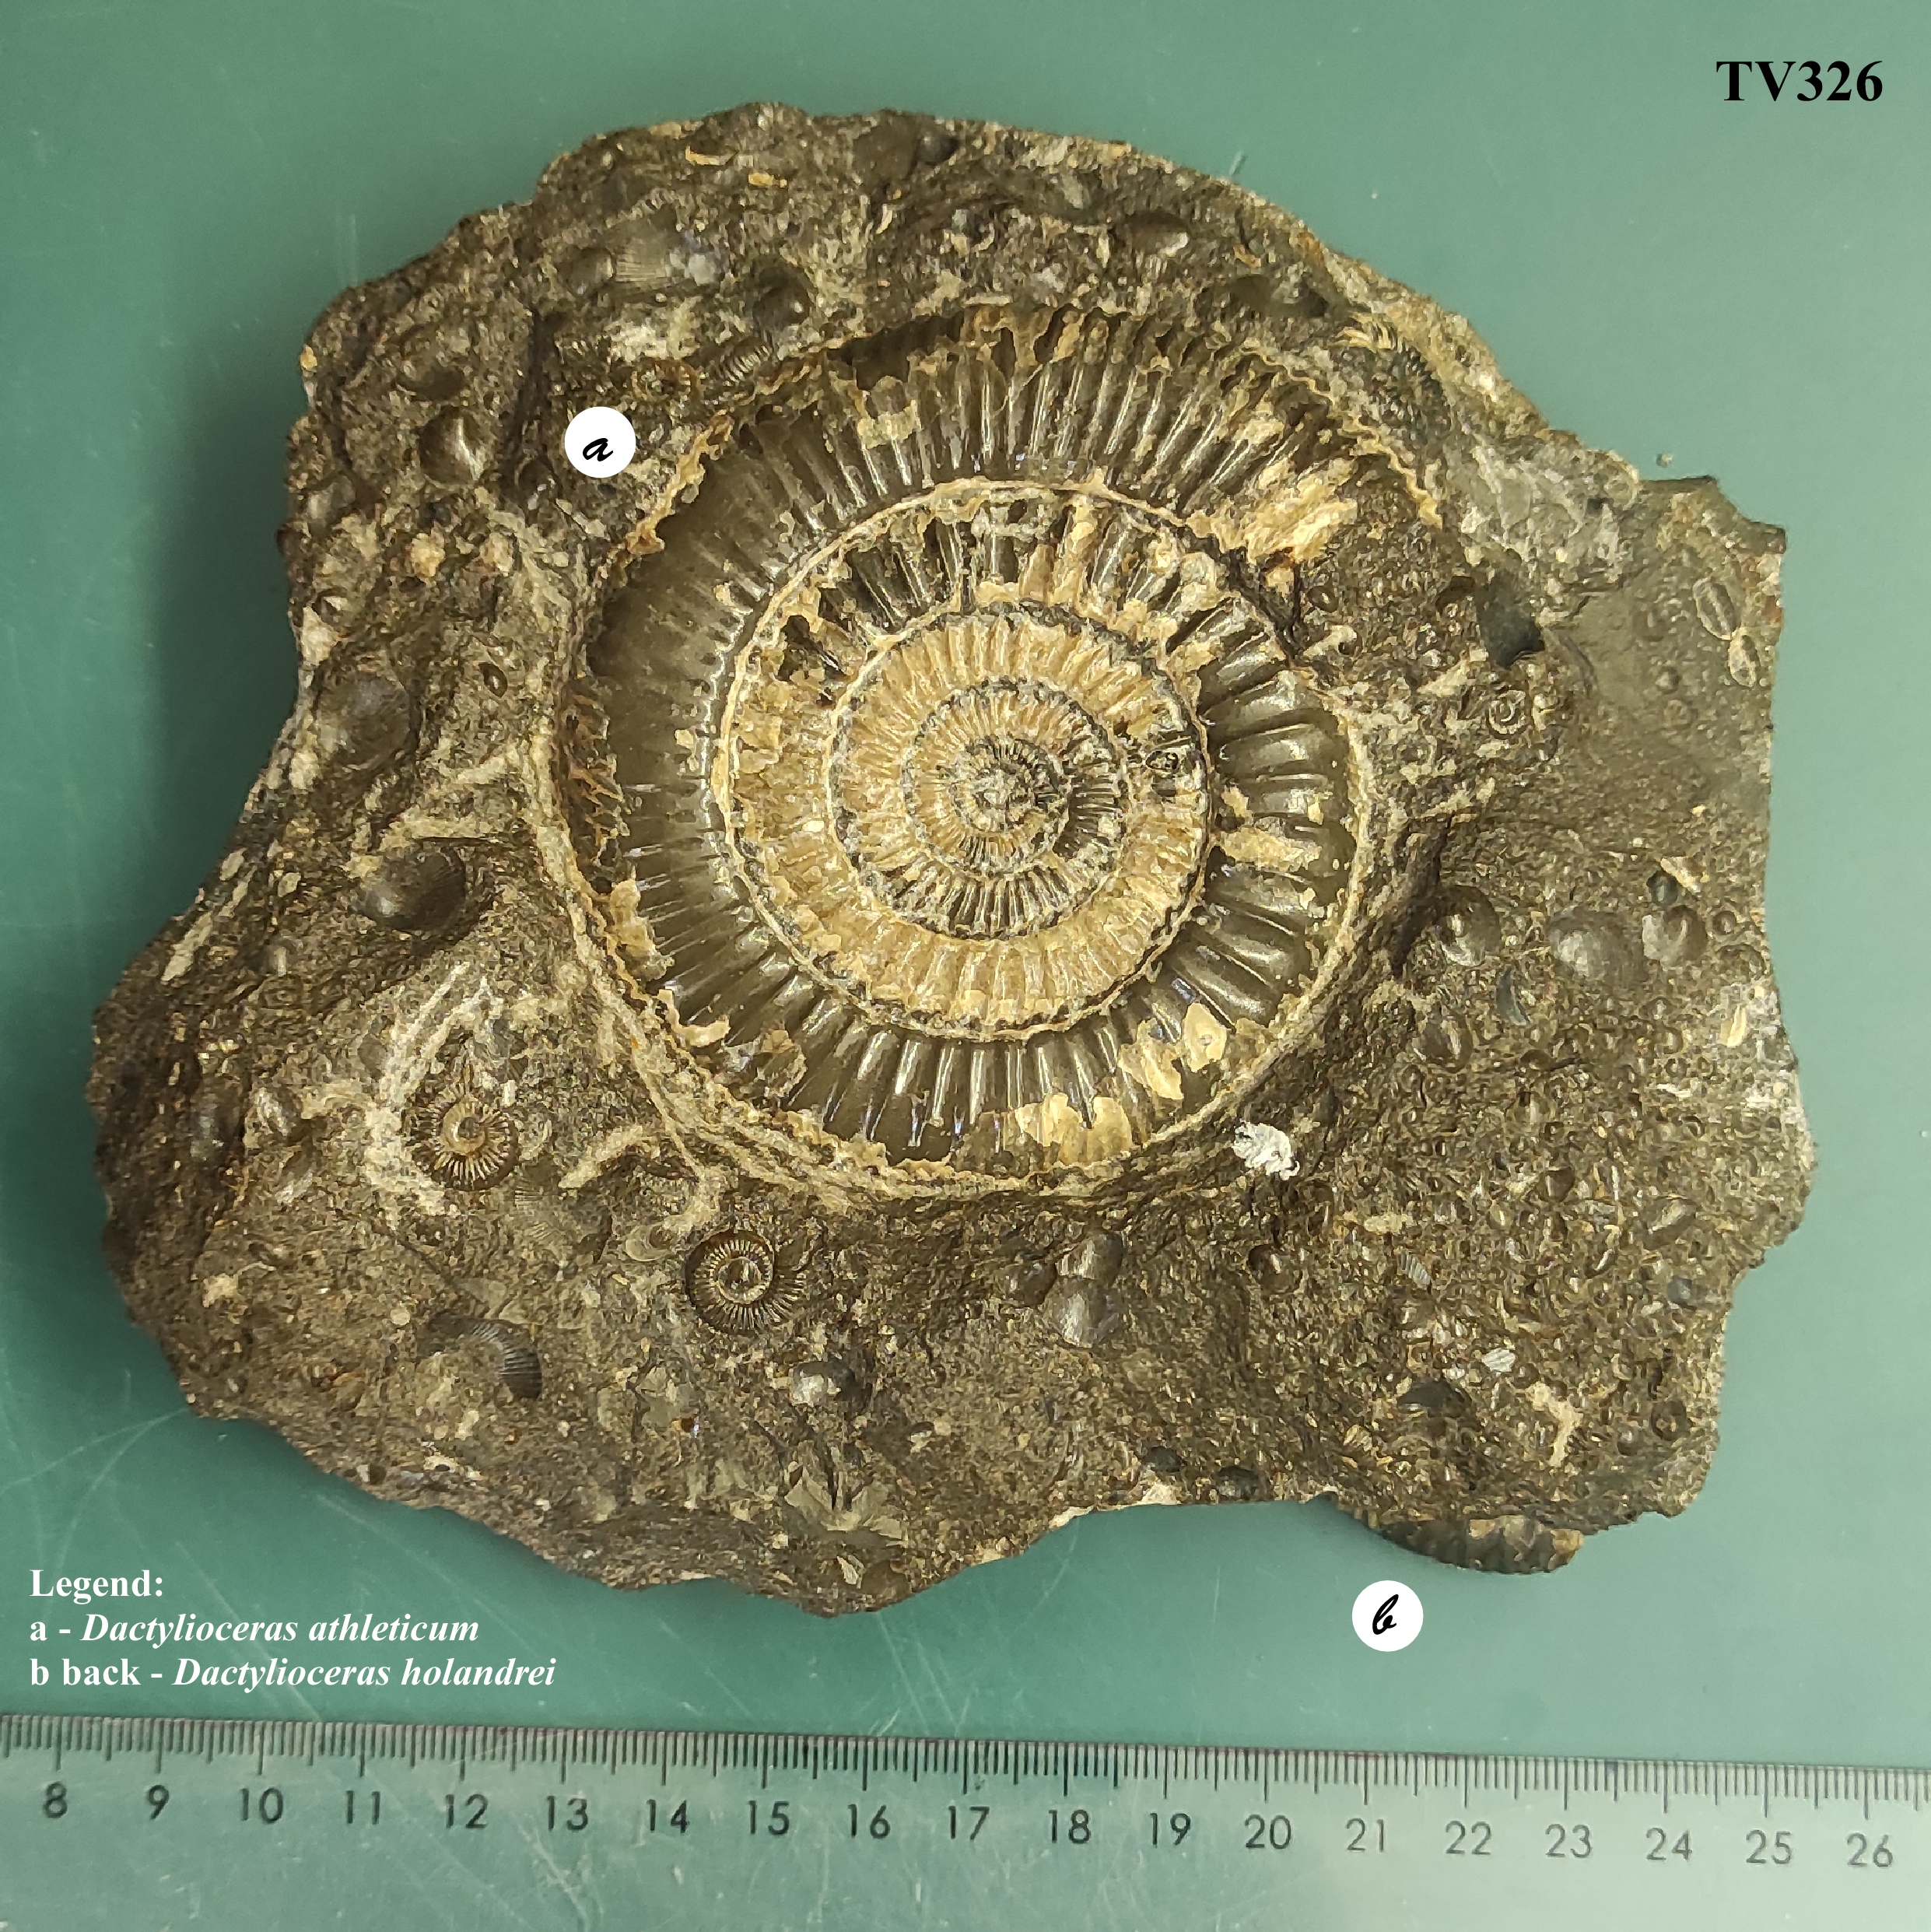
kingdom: Animalia
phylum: Mollusca
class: Cephalopoda
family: Dactylioceratidae
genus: Dactylioceras
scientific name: Dactylioceras athleticum
